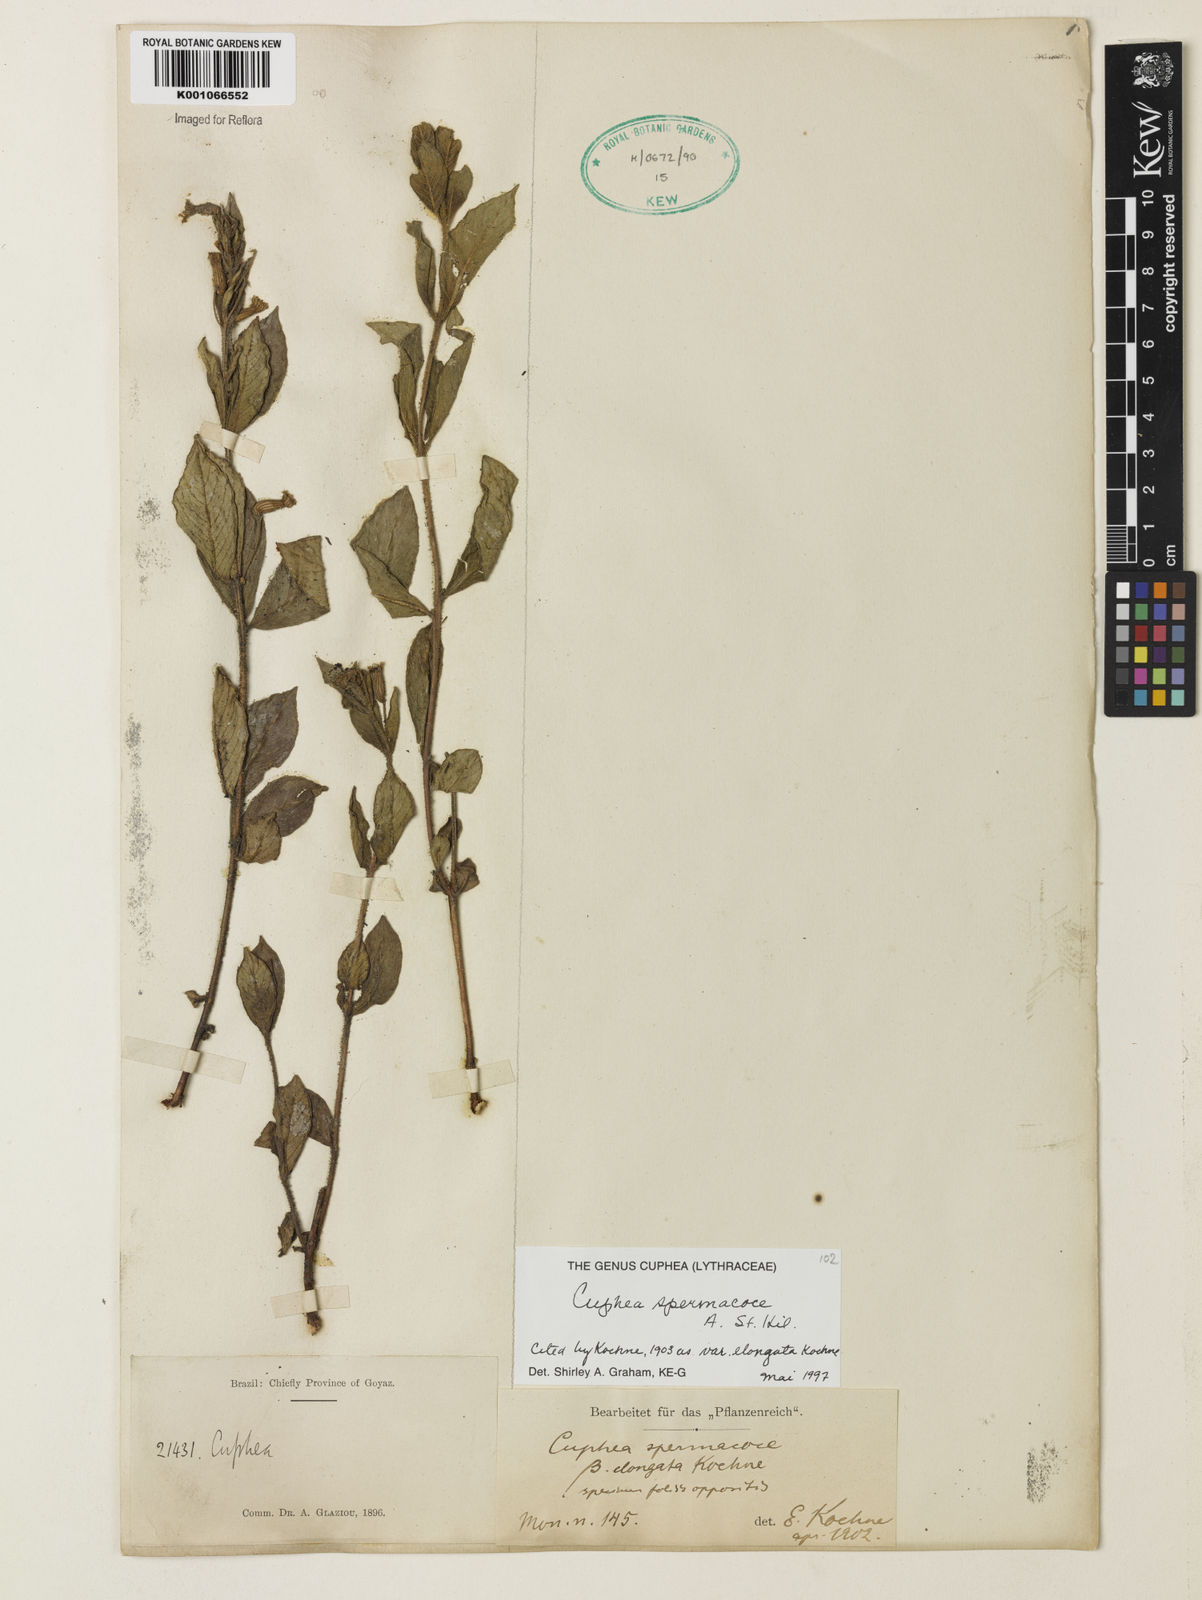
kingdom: Plantae
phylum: Tracheophyta
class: Magnoliopsida
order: Myrtales
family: Lythraceae
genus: Cuphea
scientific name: Cuphea spermacoce
